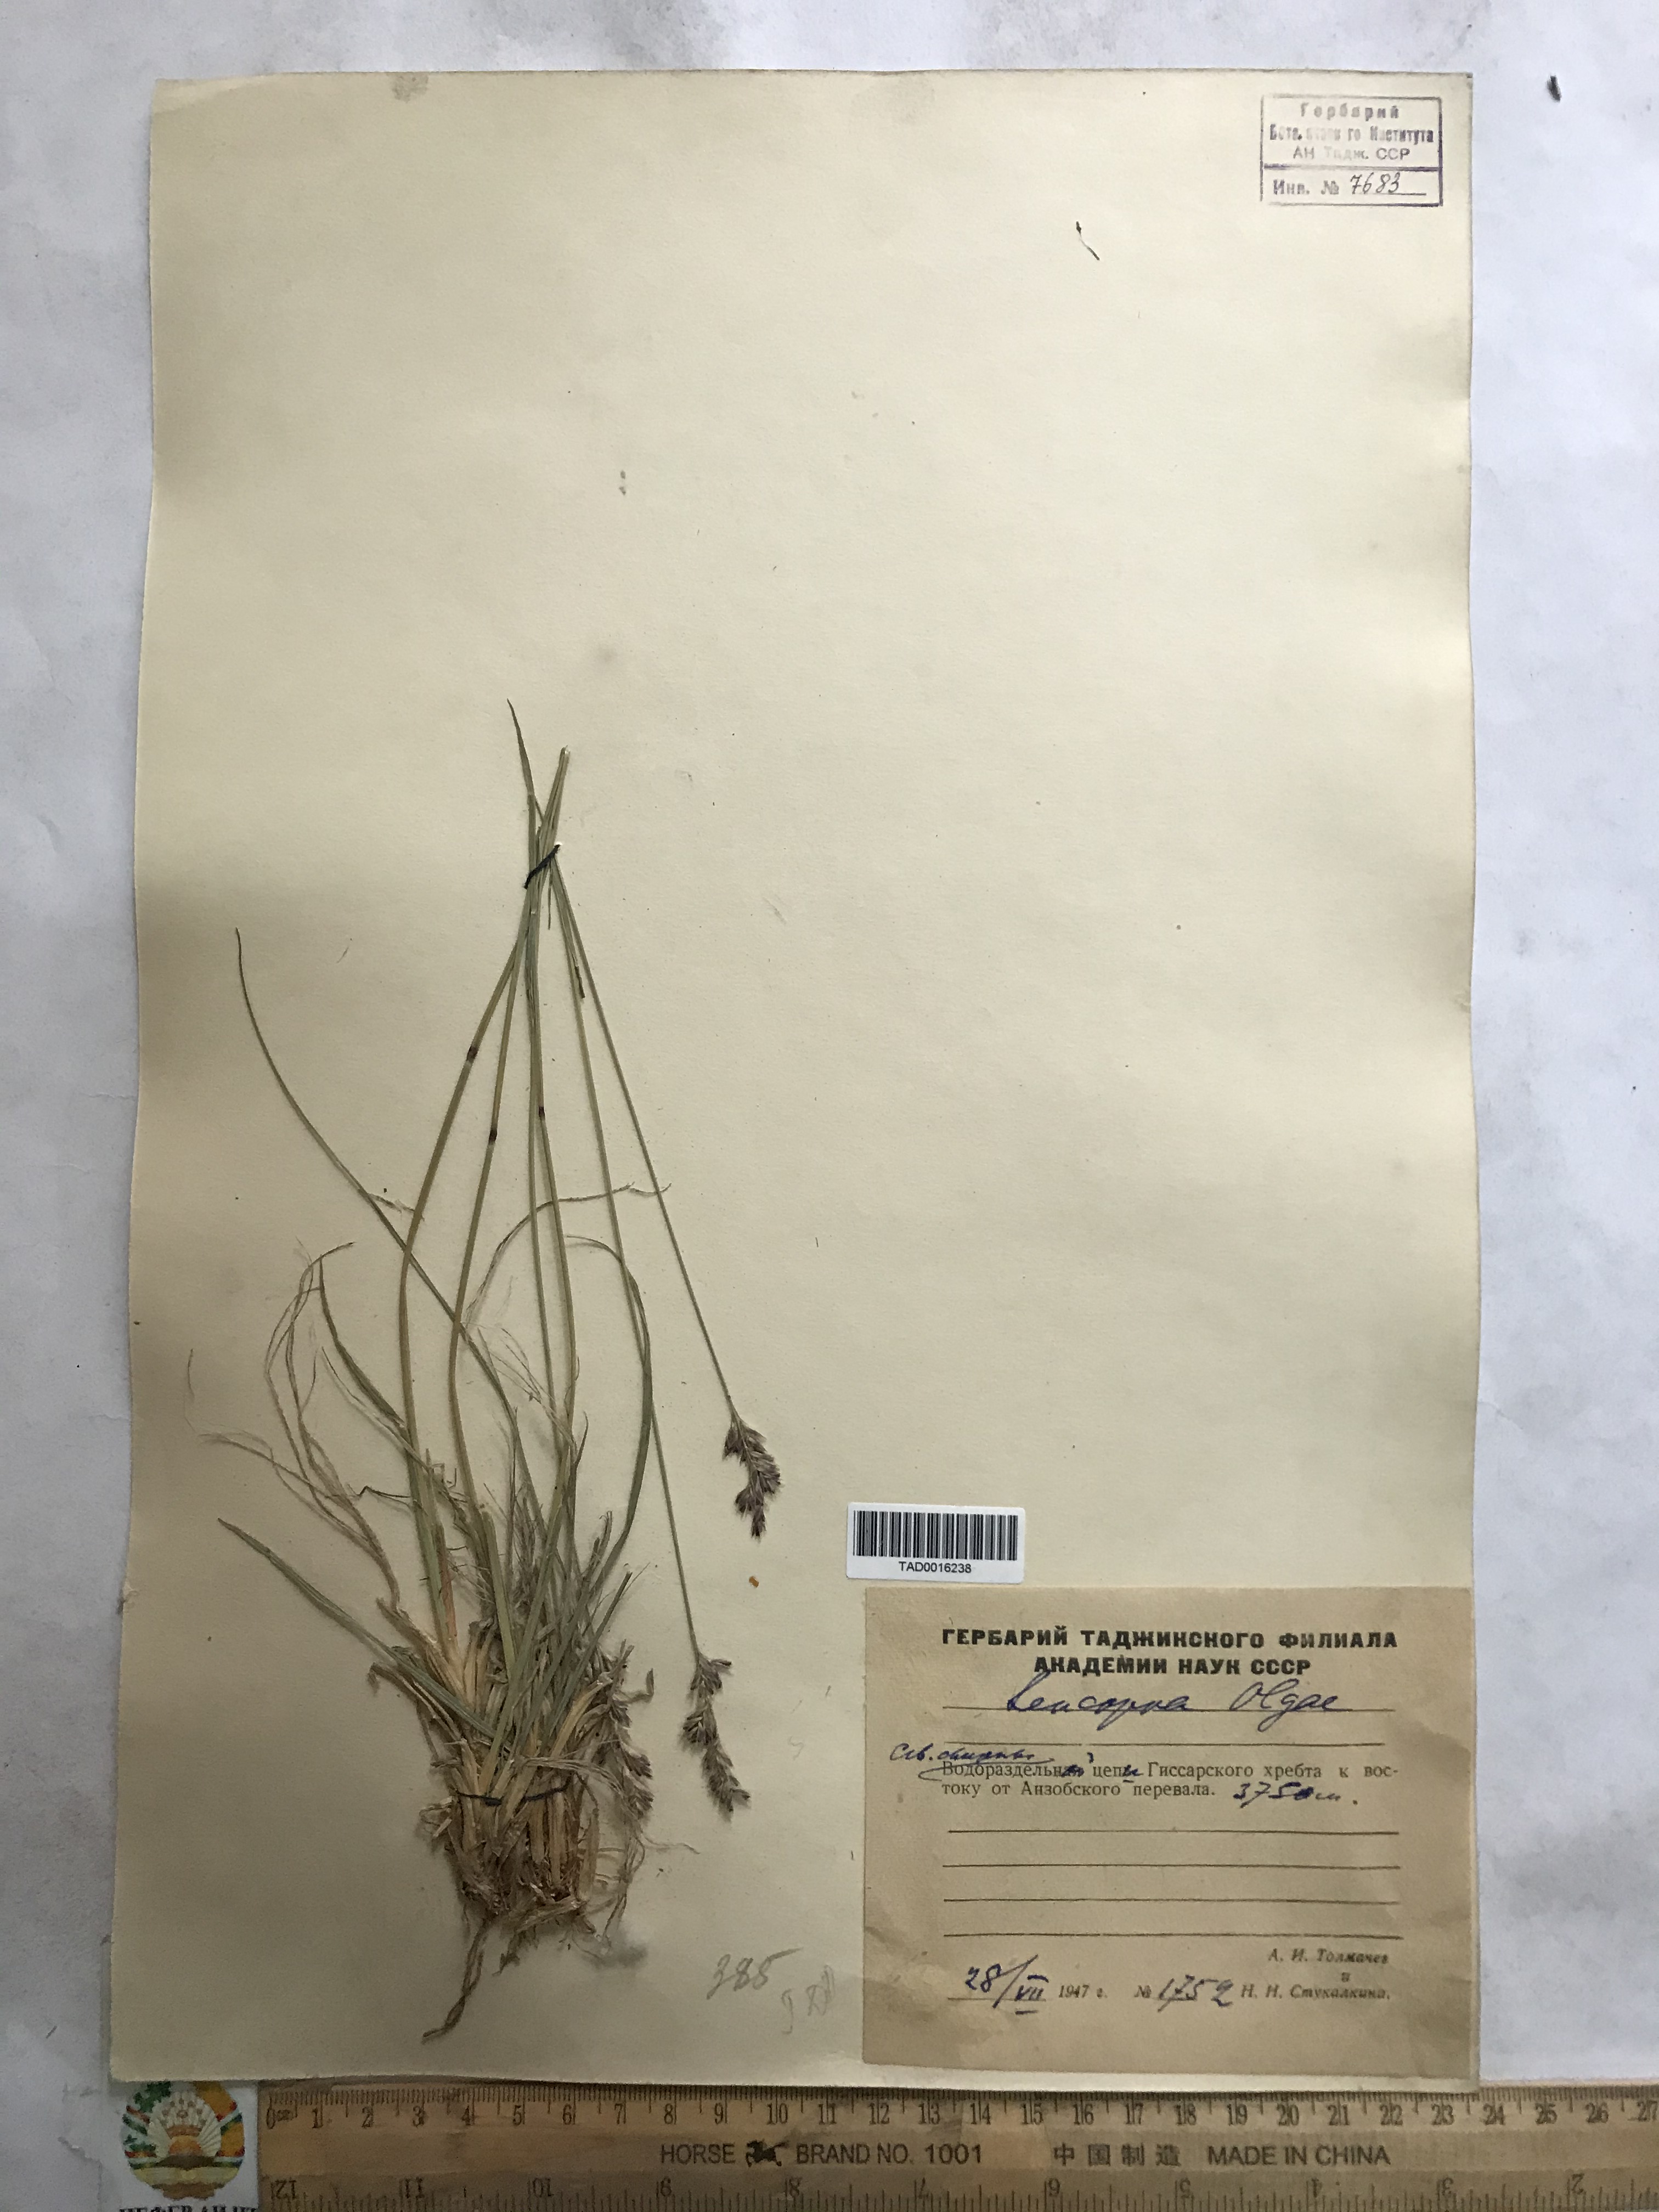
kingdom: Plantae
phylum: Tracheophyta
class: Liliopsida
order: Poales
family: Poaceae
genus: Festuca
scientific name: Festuca
